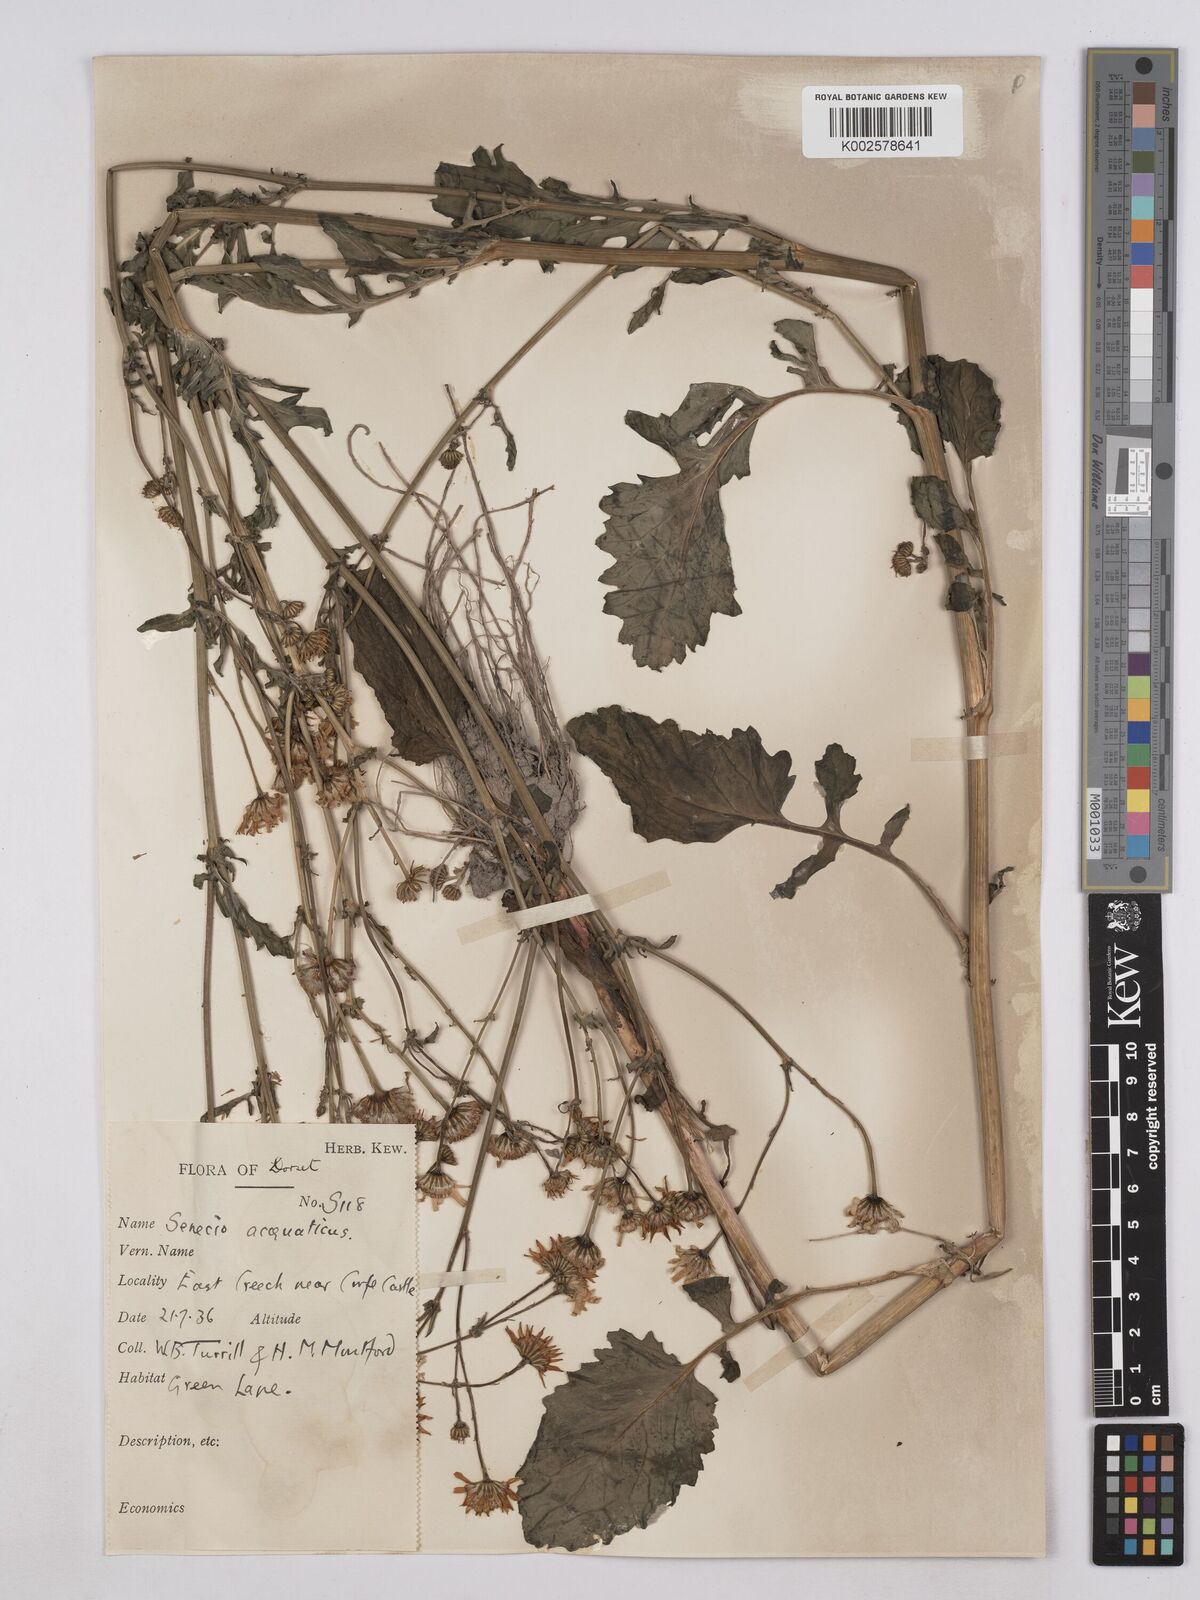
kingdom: Plantae
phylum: Tracheophyta
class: Magnoliopsida
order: Asterales
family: Asteraceae
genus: Jacobaea
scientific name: Jacobaea aquatica
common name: Water ragwort
